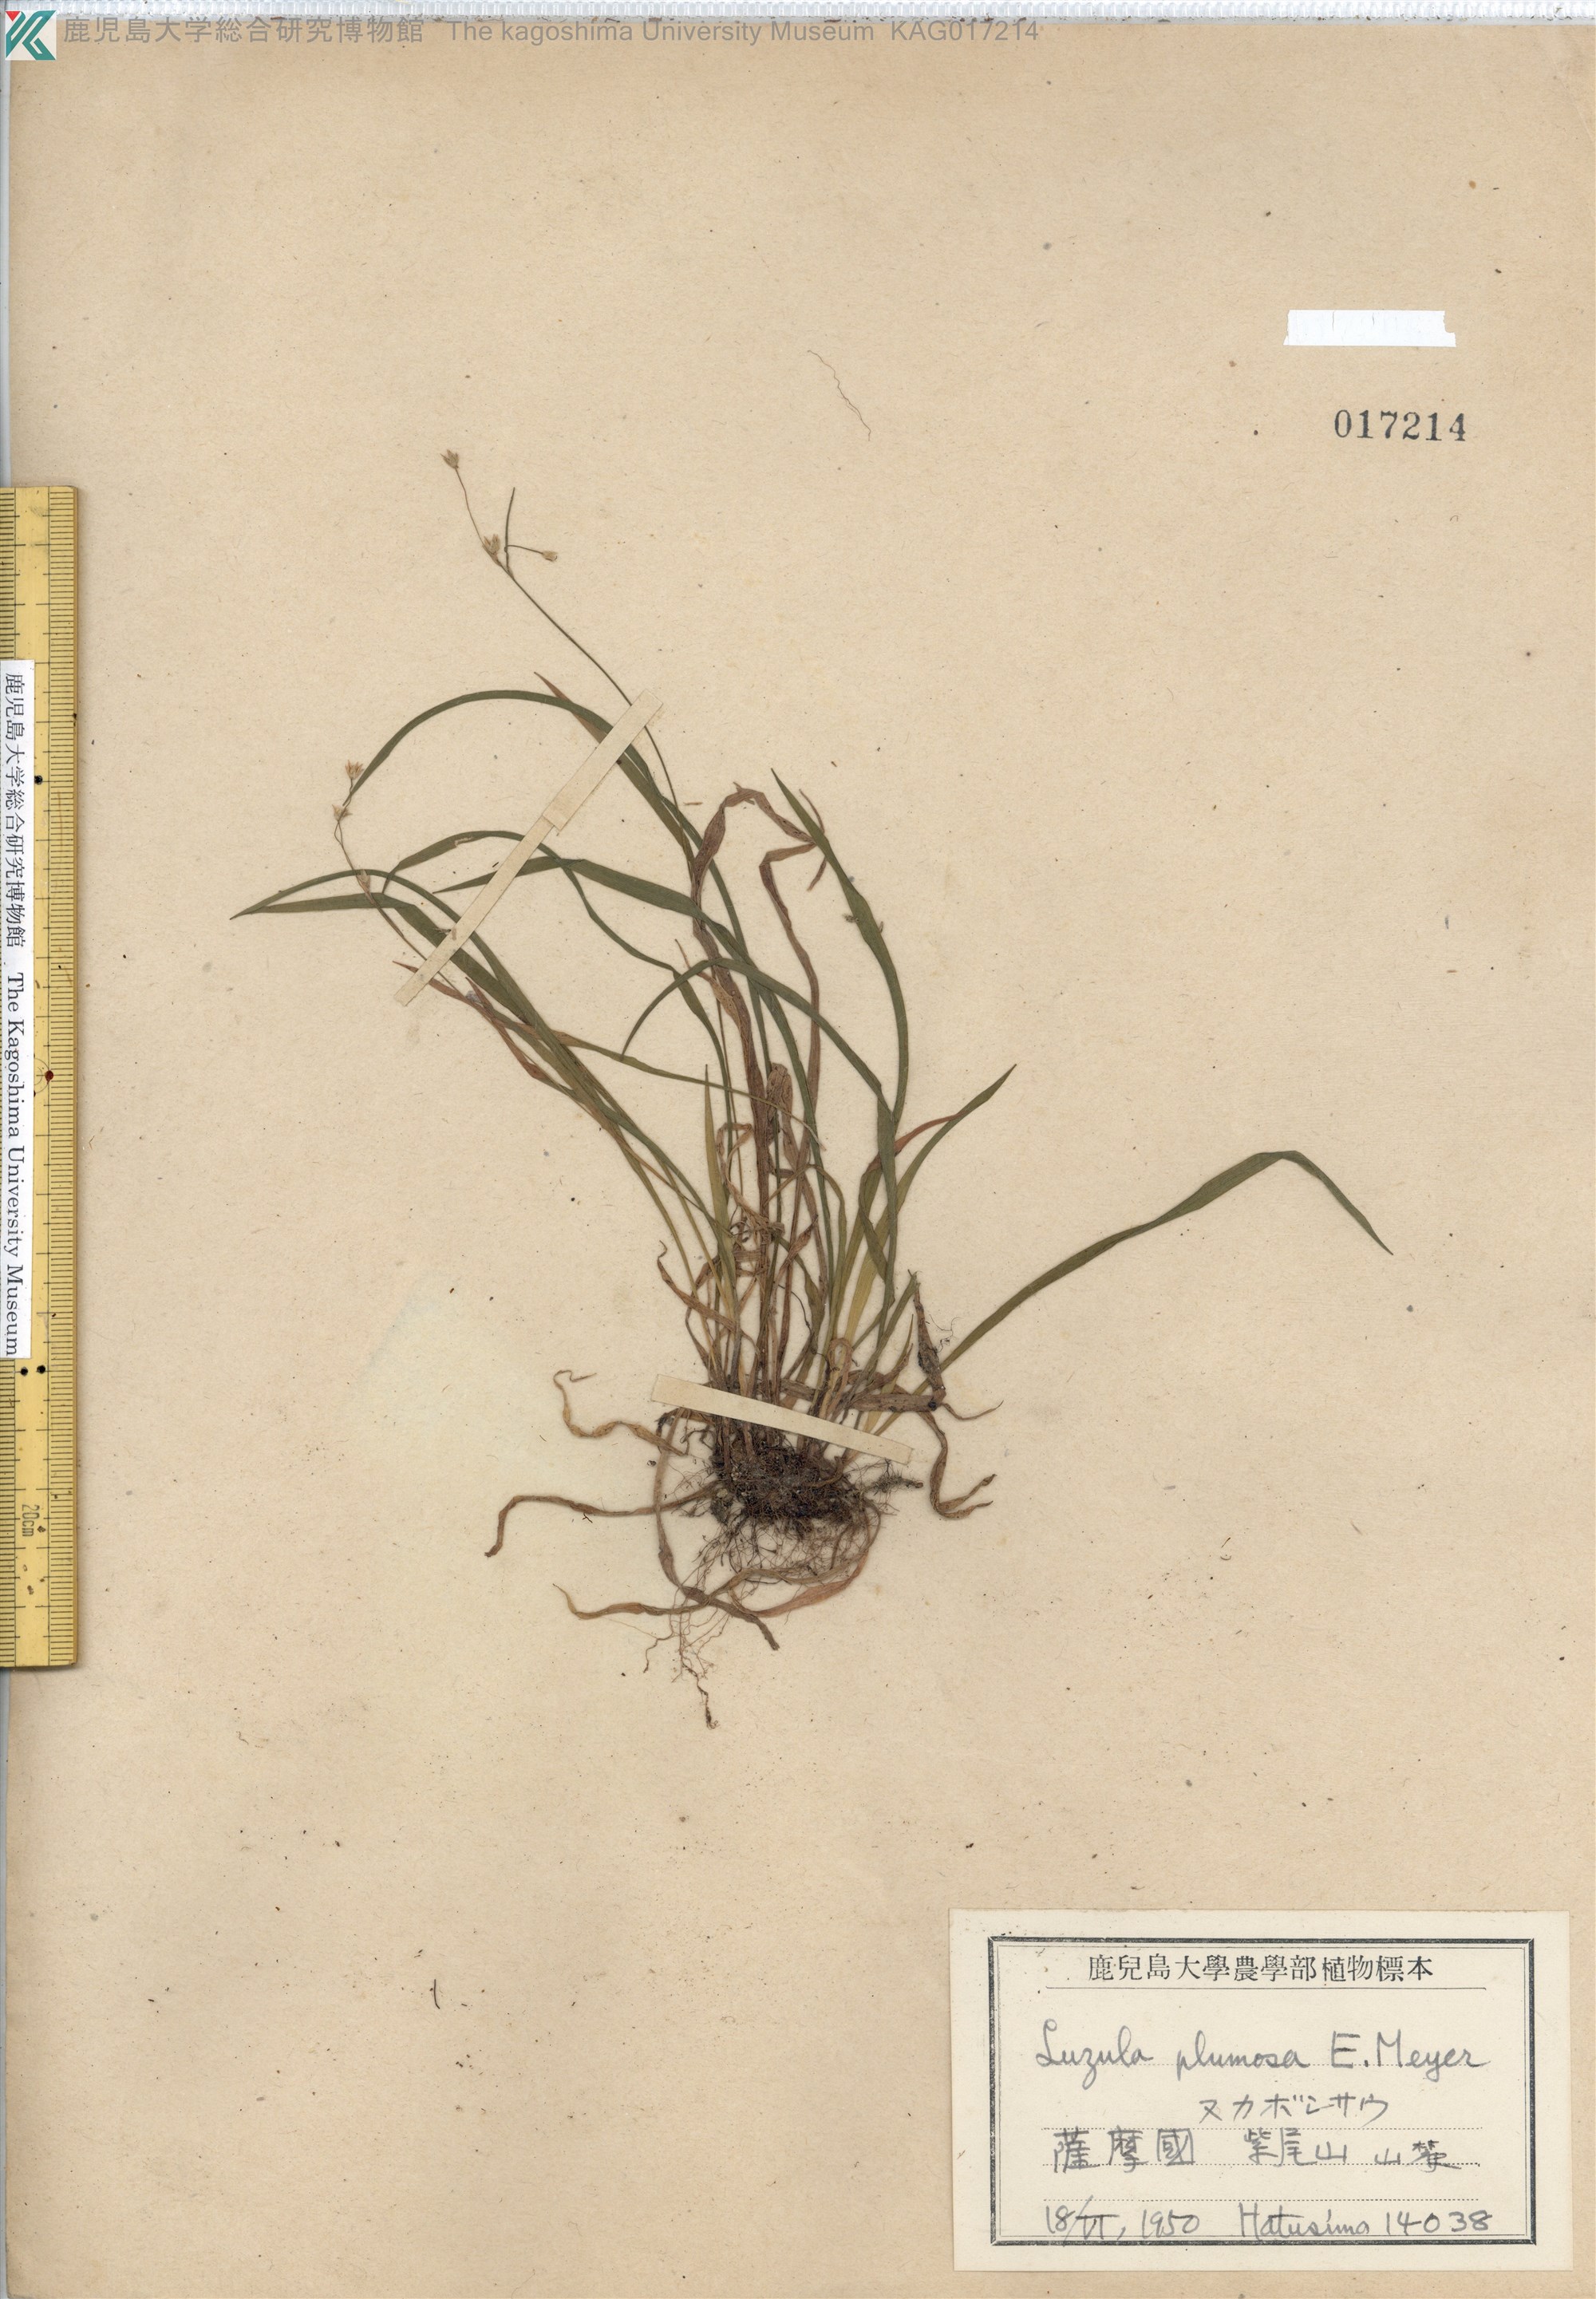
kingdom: Plantae
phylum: Tracheophyta
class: Liliopsida
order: Poales
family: Juncaceae
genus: Luzula
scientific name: Luzula plumosa
